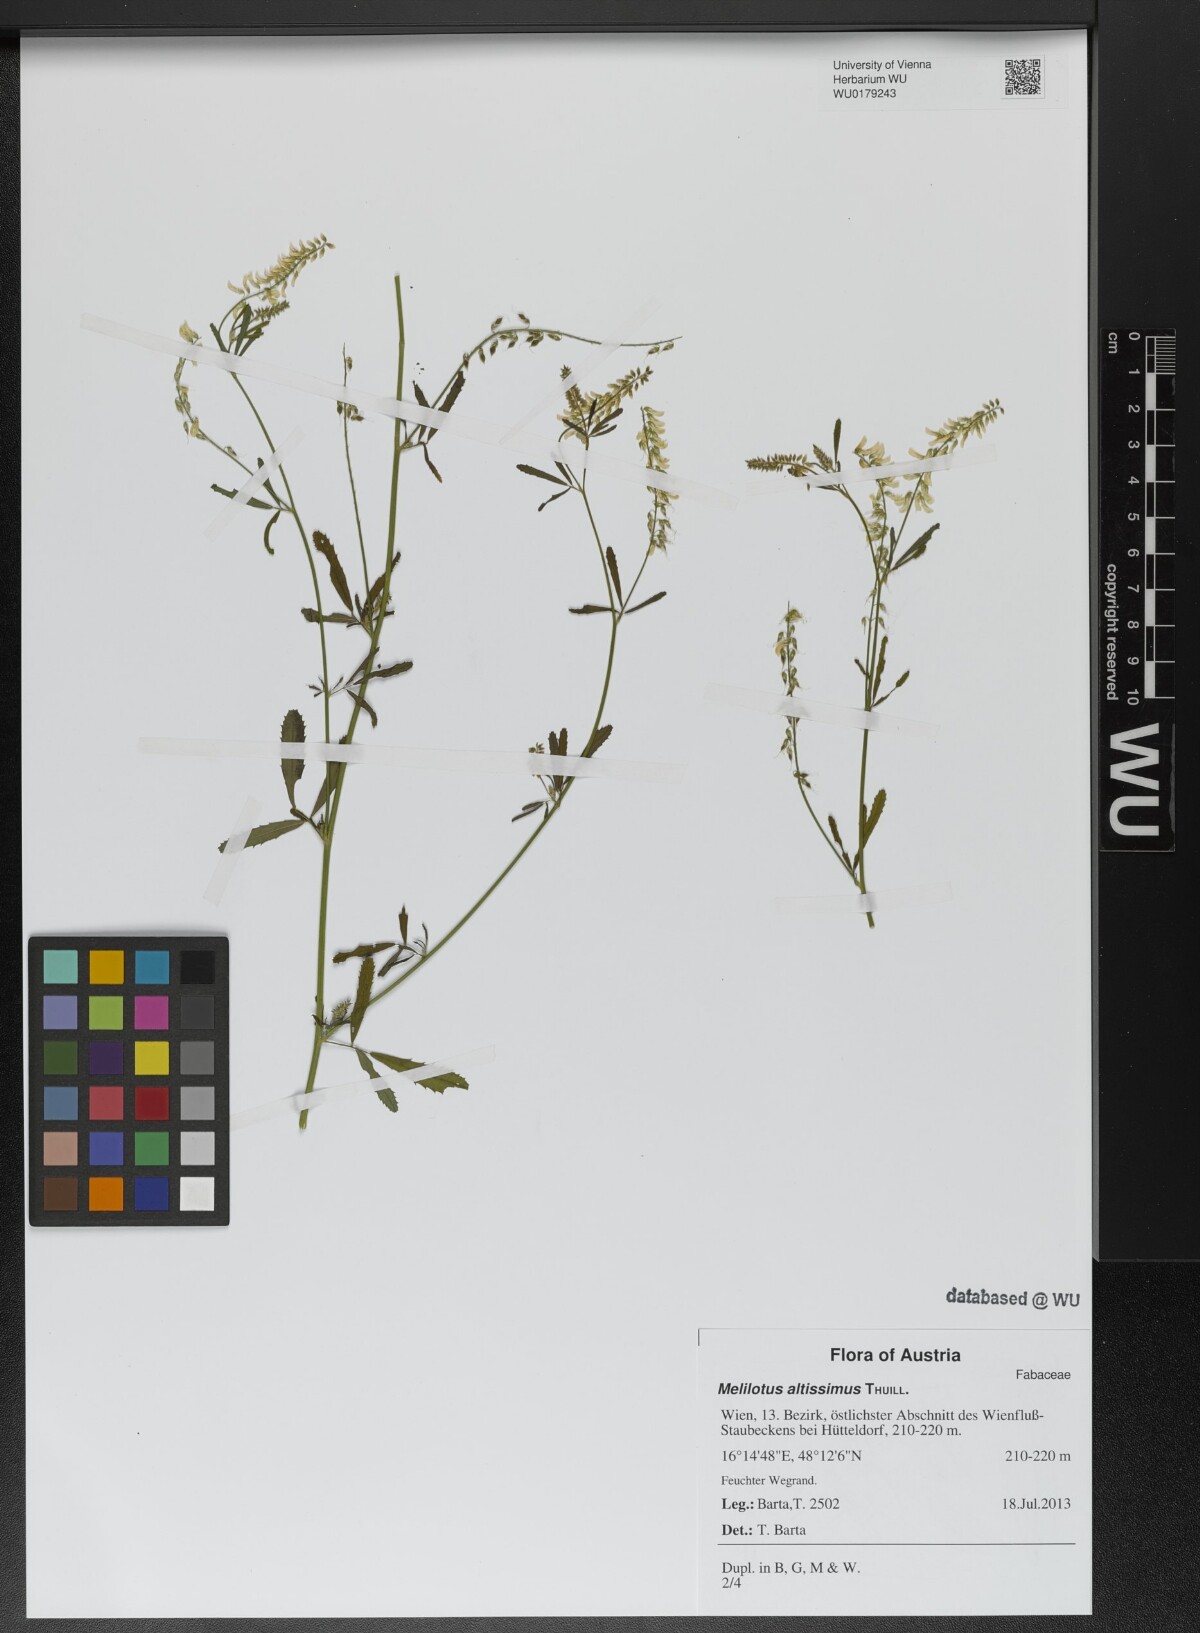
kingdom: Plantae
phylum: Tracheophyta
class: Magnoliopsida
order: Fabales
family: Fabaceae
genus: Melilotus
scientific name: Melilotus altissimus
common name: Tall melilot
